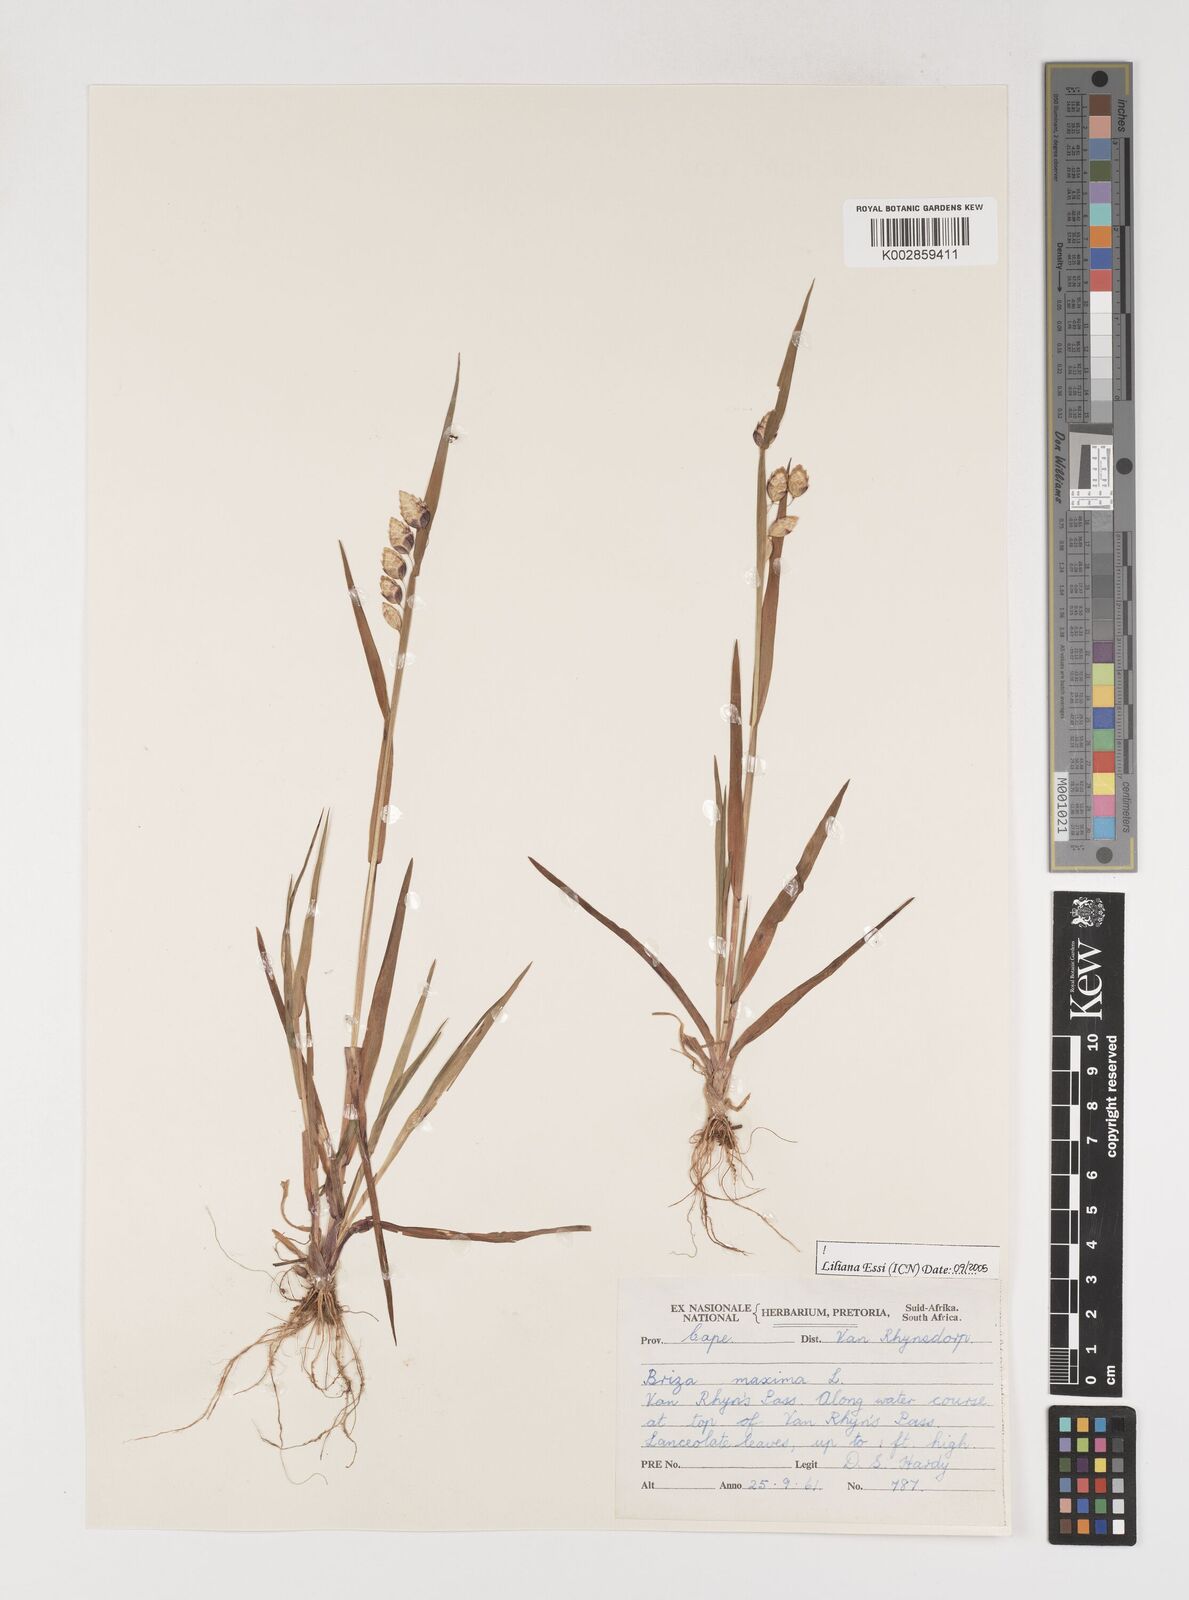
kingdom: Plantae
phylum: Tracheophyta
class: Liliopsida
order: Poales
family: Poaceae
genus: Briza
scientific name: Briza maxima
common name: Big quakinggrass
